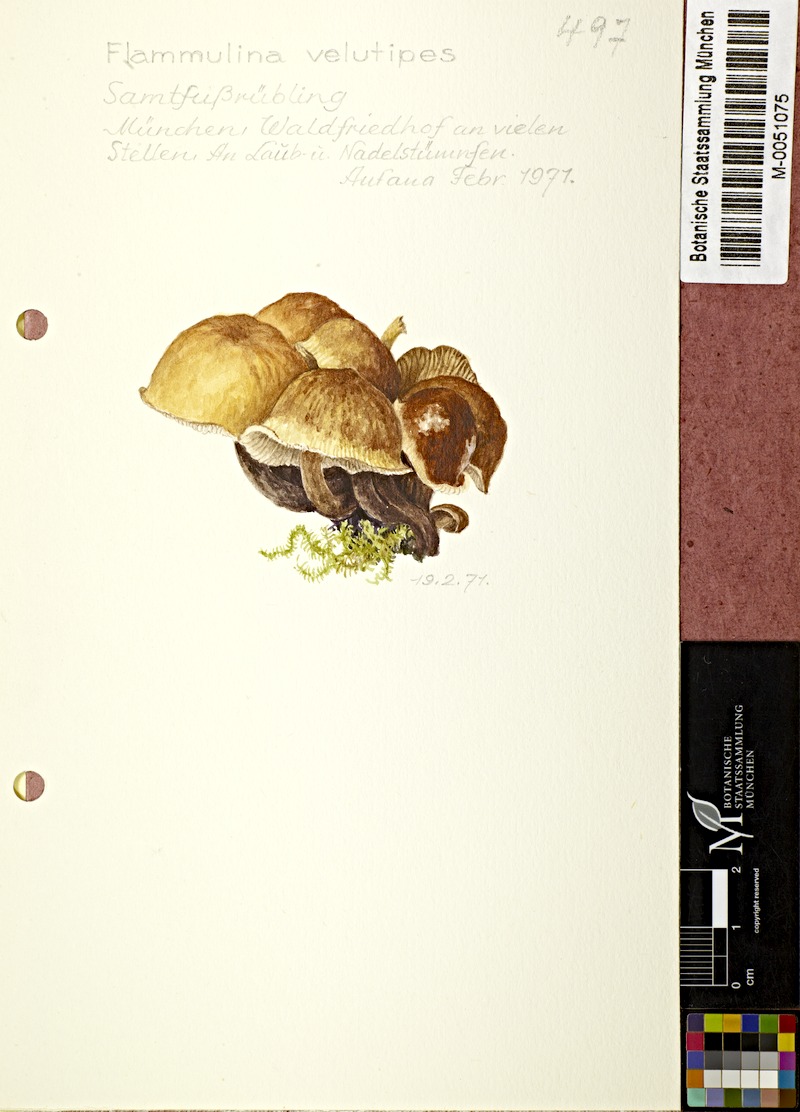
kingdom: Fungi
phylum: Basidiomycota
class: Agaricomycetes
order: Agaricales
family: Physalacriaceae
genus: Flammulina
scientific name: Flammulina velutipes
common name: Velvet shank
